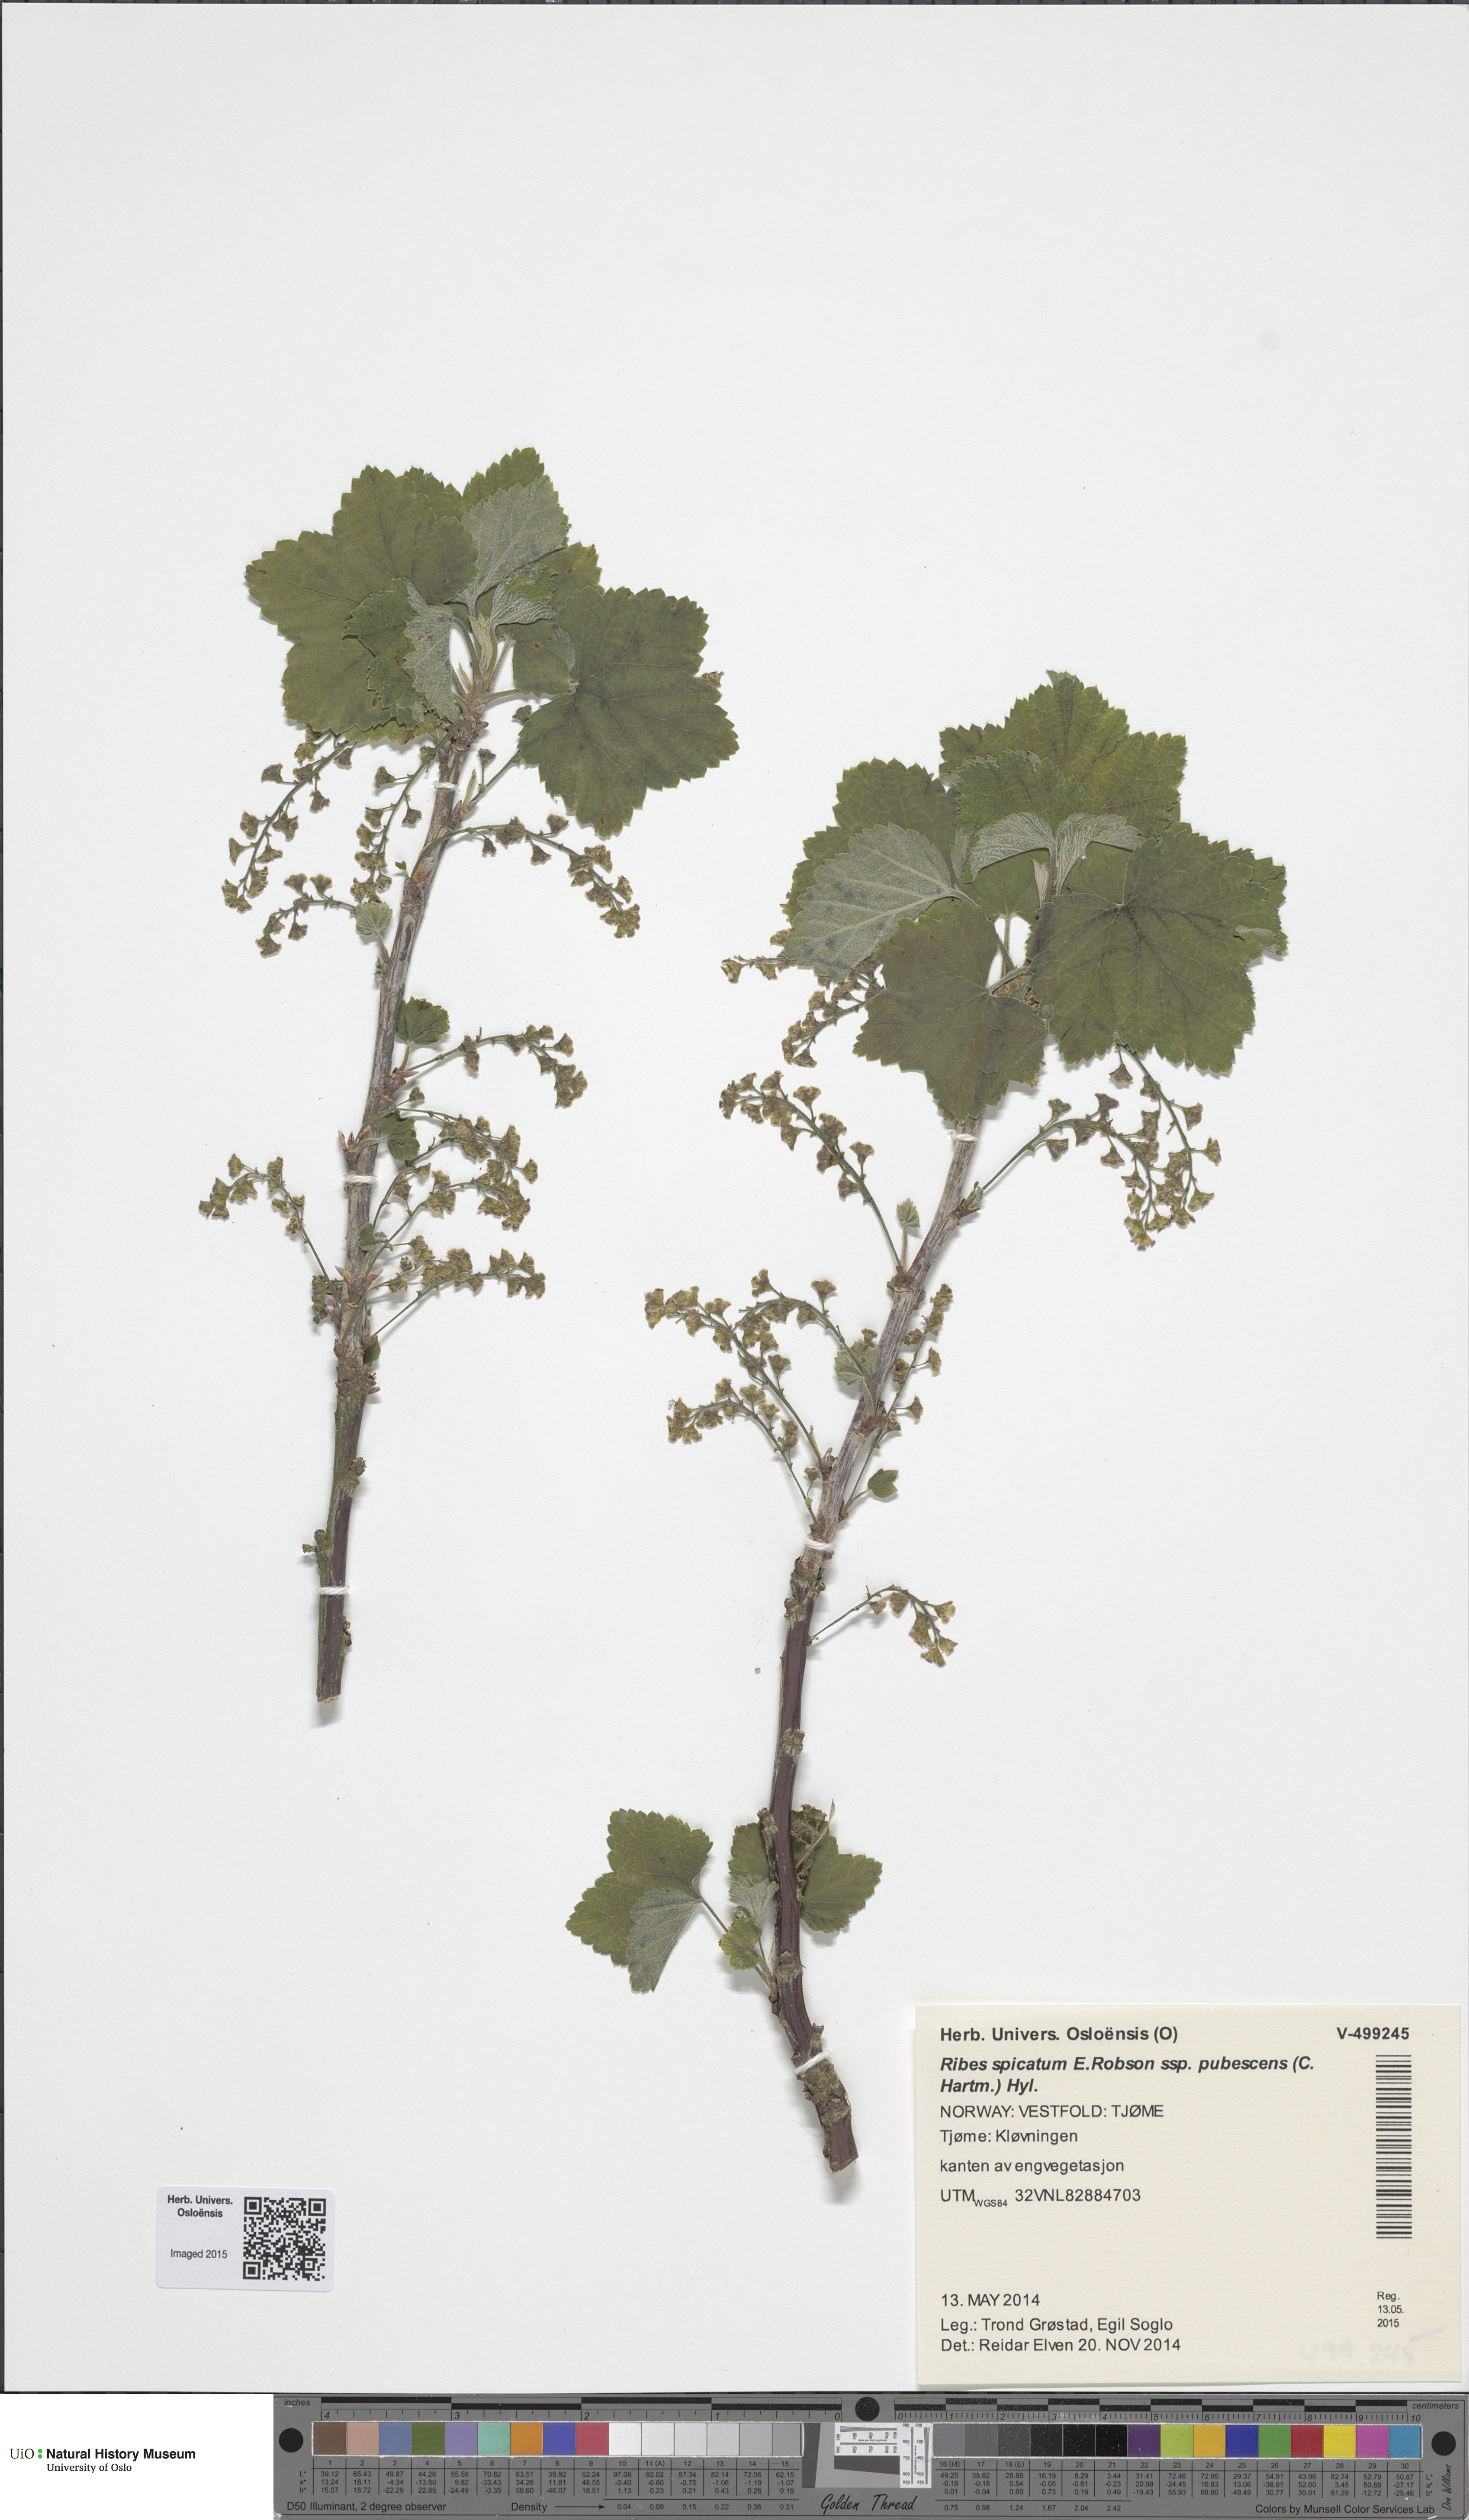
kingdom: Plantae
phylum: Tracheophyta
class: Magnoliopsida
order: Saxifragales
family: Grossulariaceae
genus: Ribes
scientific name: Ribes spicatum
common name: Downy currant
